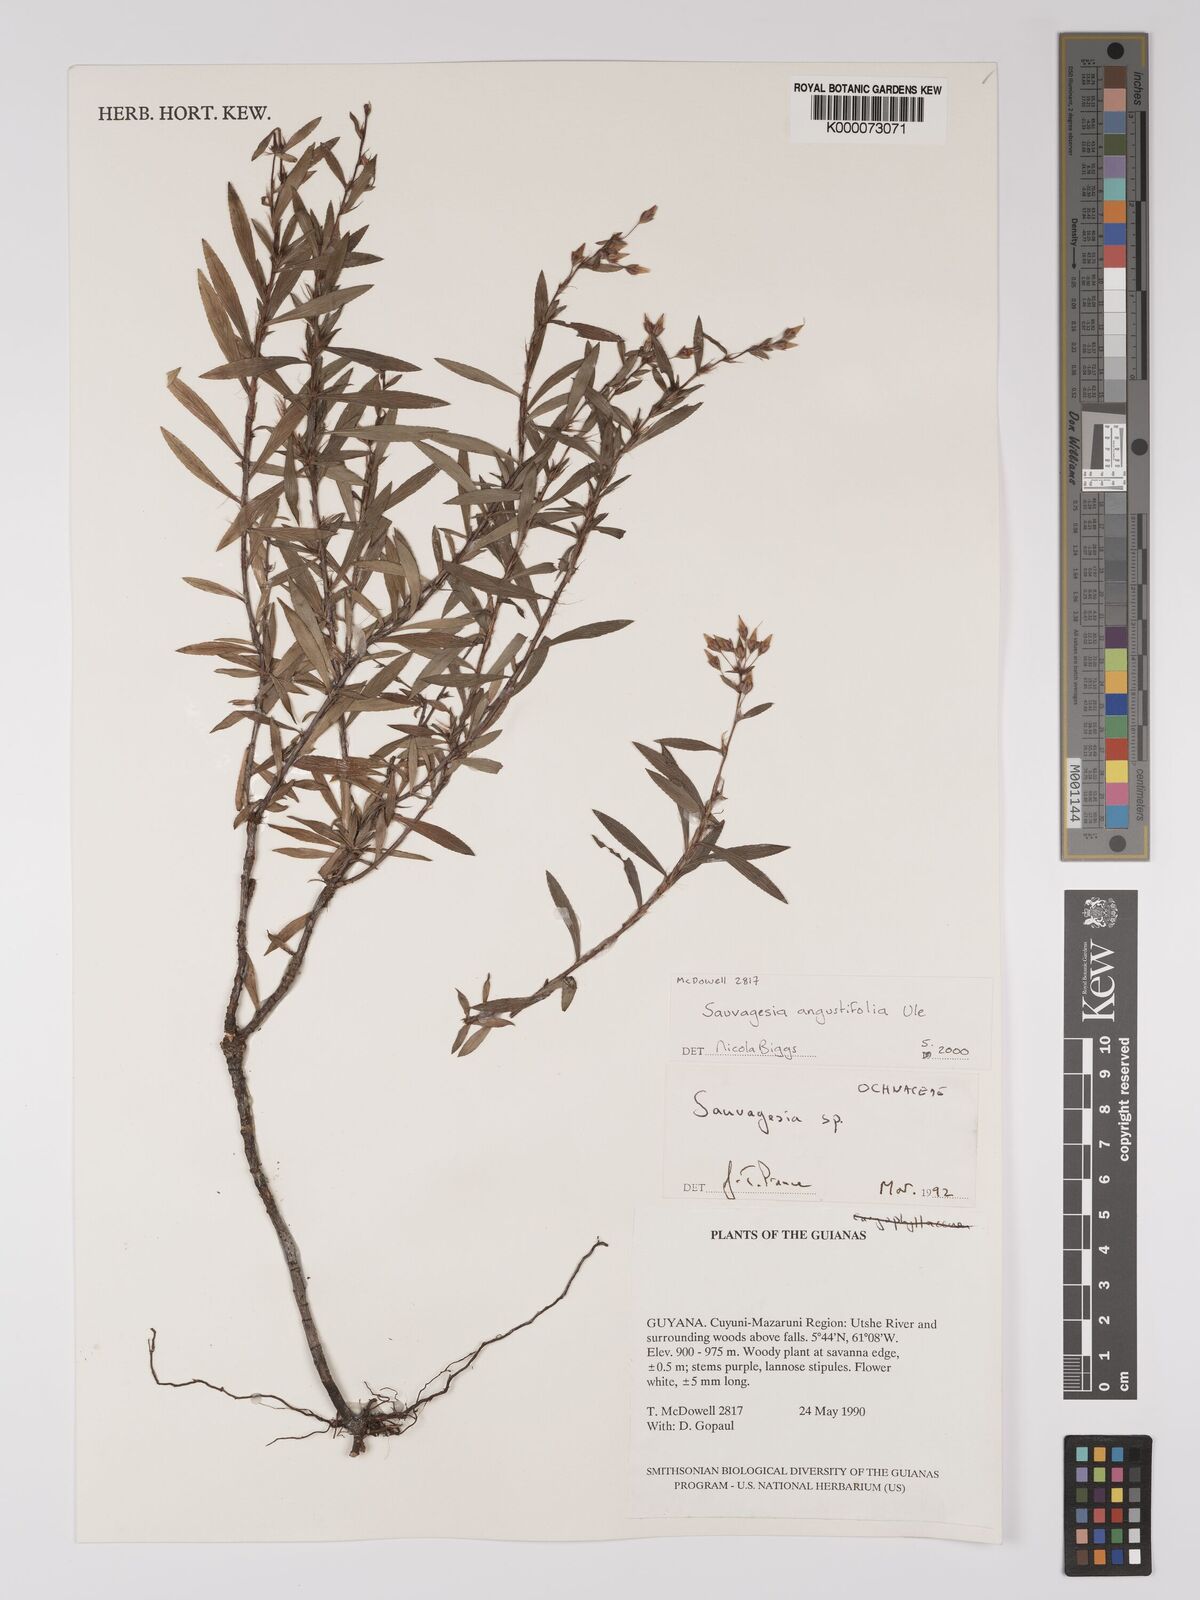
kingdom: Plantae
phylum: Tracheophyta
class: Magnoliopsida
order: Malpighiales
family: Ochnaceae
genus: Sauvagesia
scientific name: Sauvagesia angustifolia
